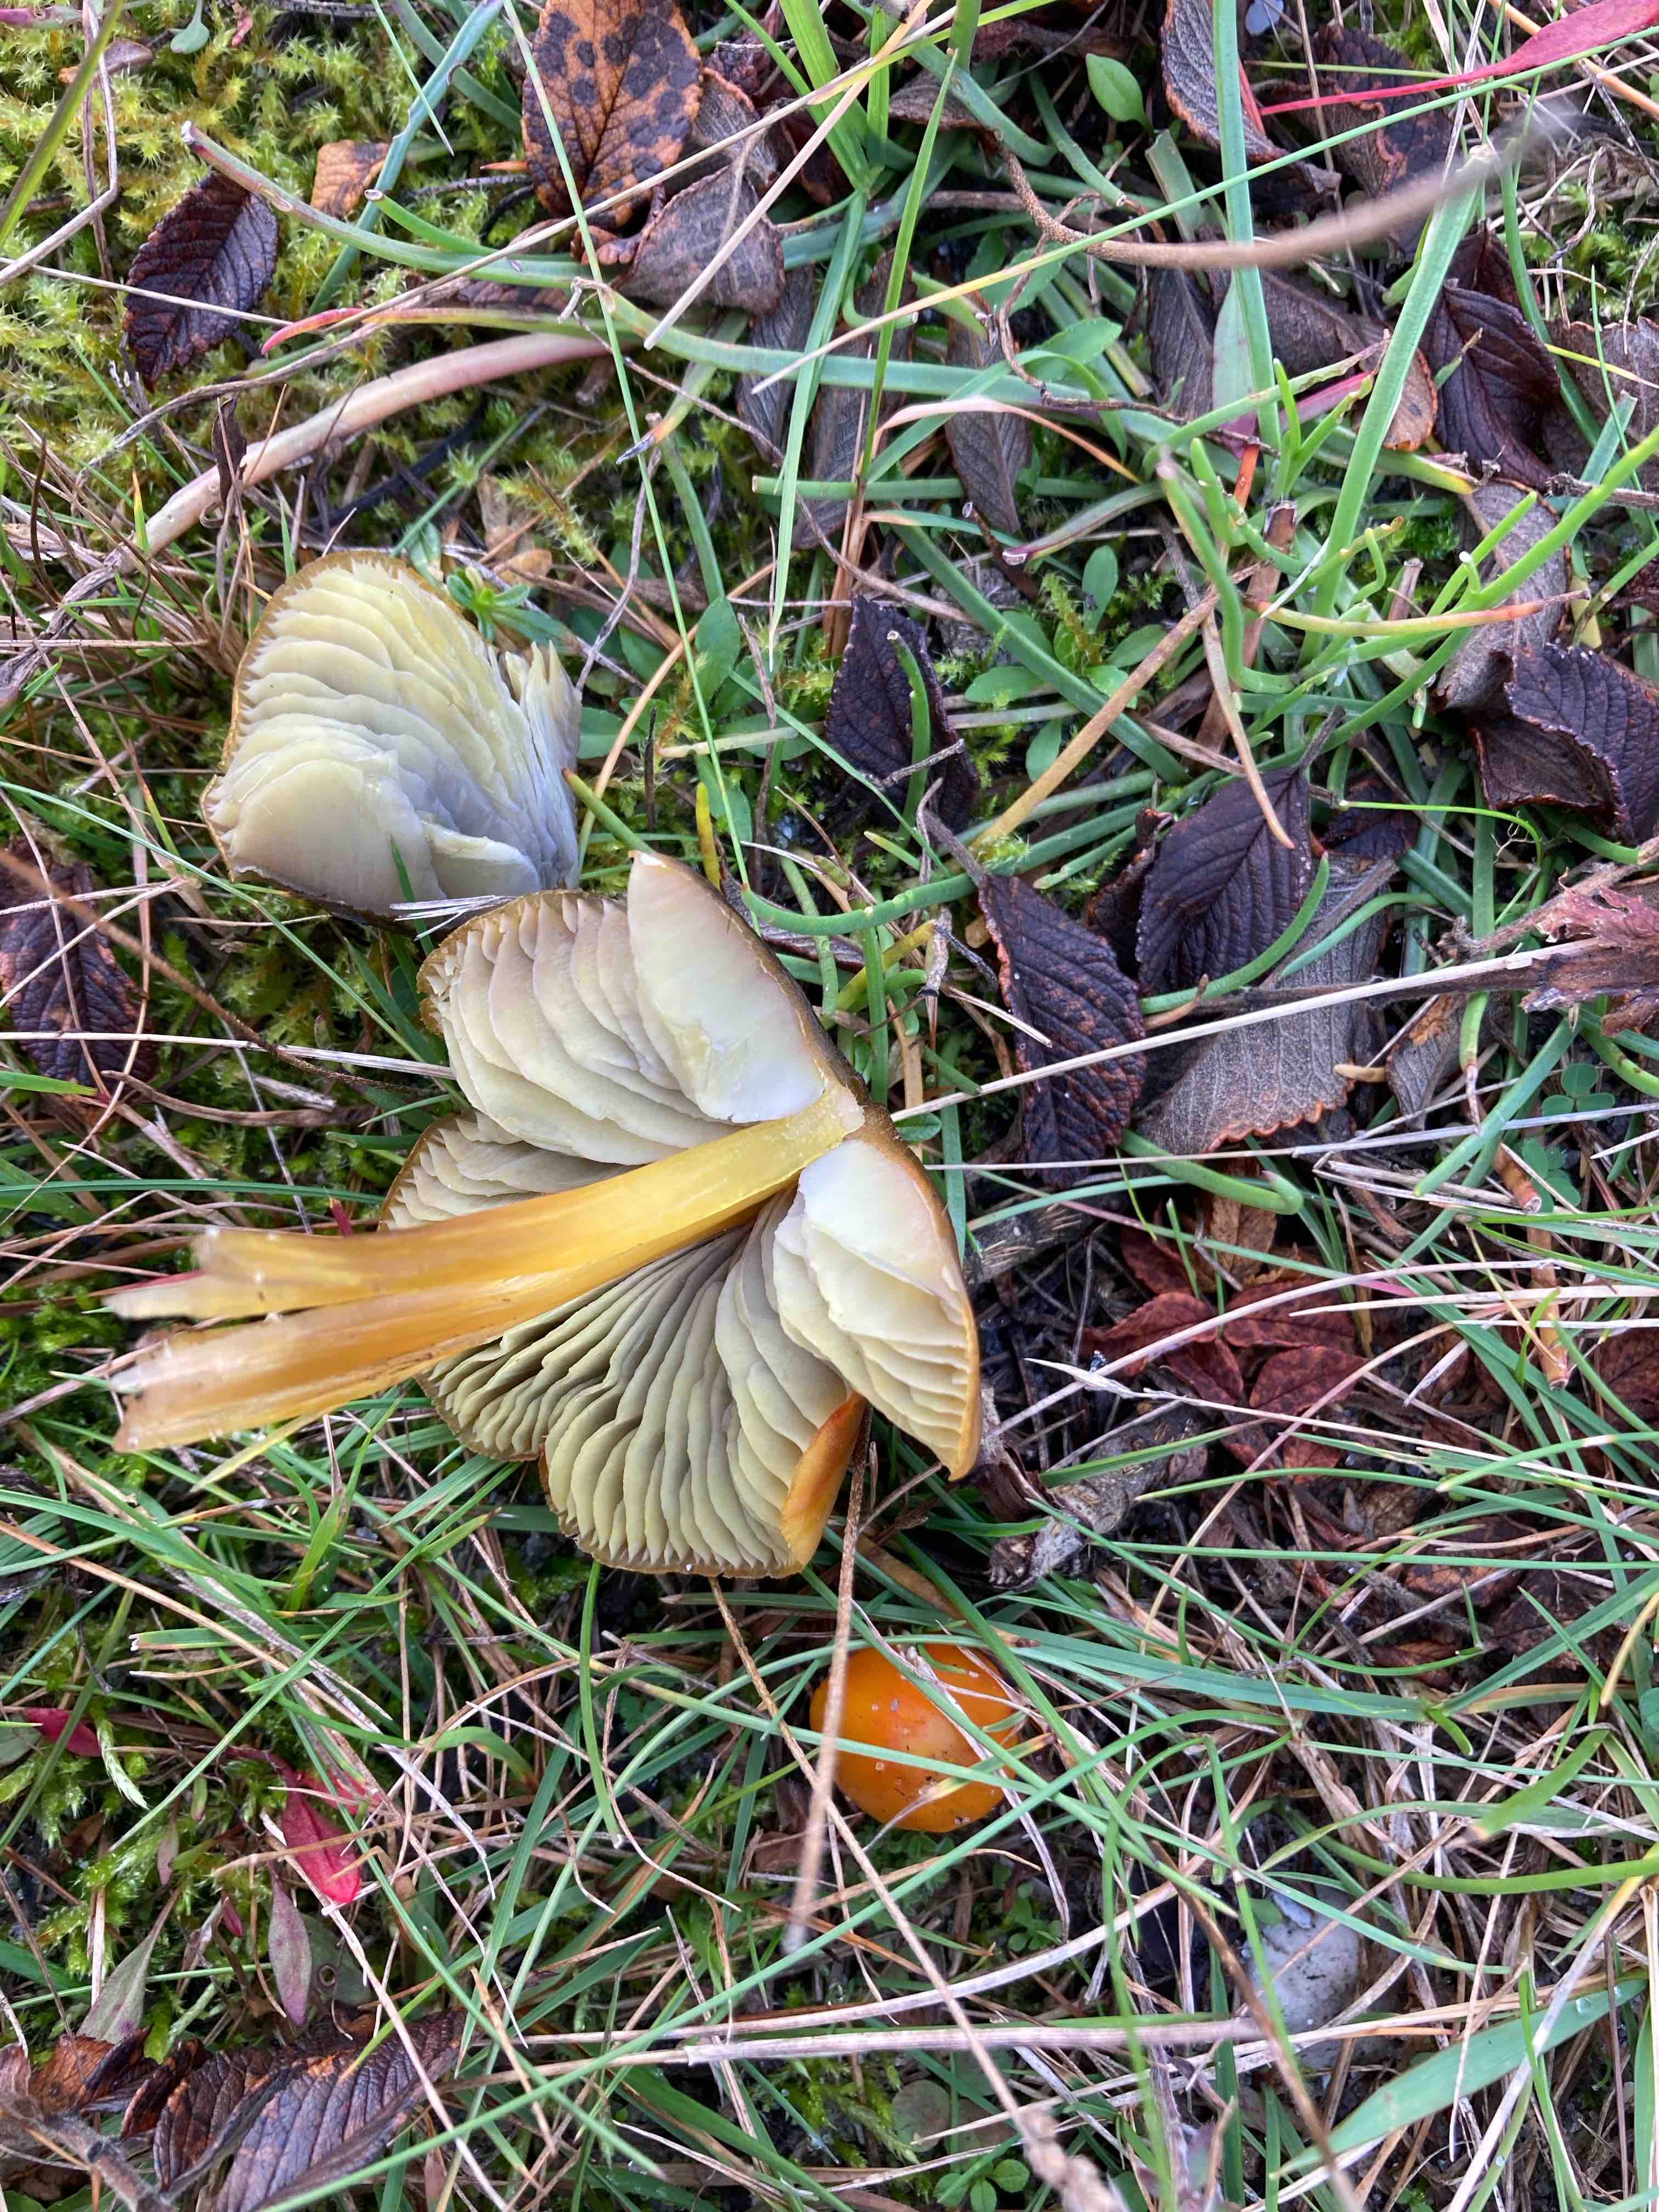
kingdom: Fungi
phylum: Basidiomycota
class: Agaricomycetes
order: Agaricales
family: Hygrophoraceae
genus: Hygrocybe
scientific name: Hygrocybe conica
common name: kegle-vokshat
